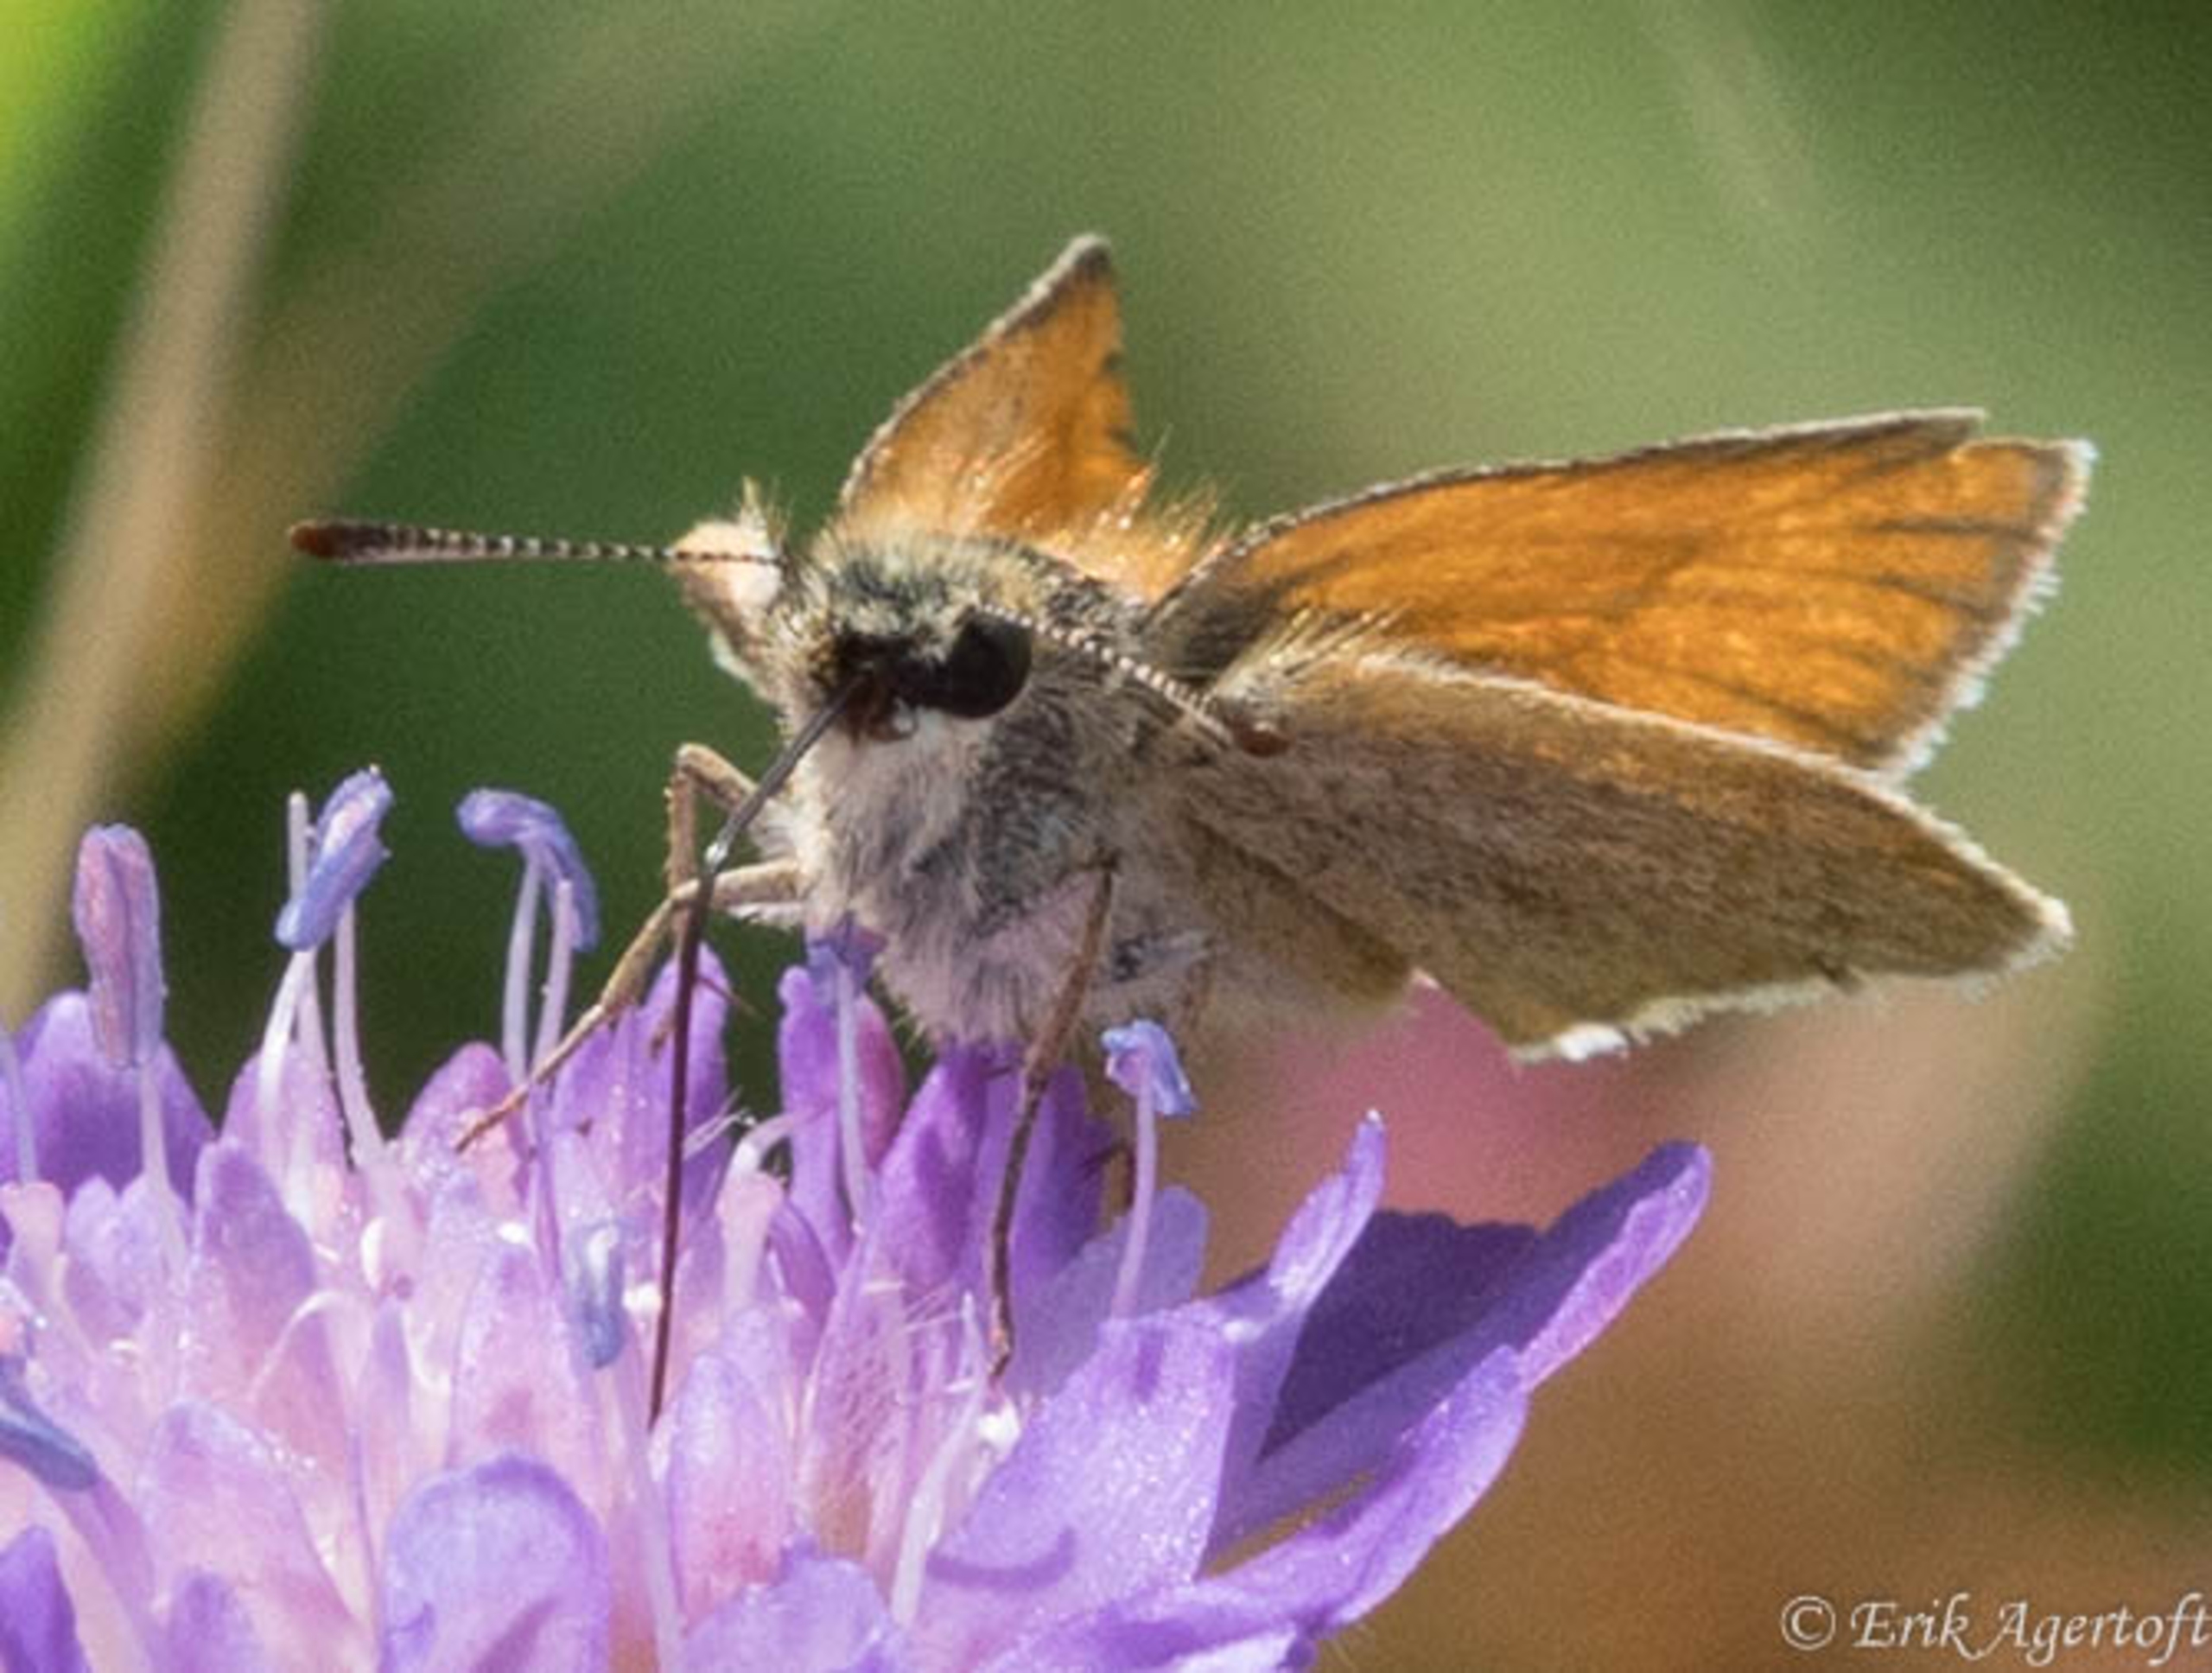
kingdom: Animalia
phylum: Arthropoda
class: Insecta
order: Lepidoptera
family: Hesperiidae
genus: Thymelicus
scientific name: Thymelicus lineola
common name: Stregbredpande
